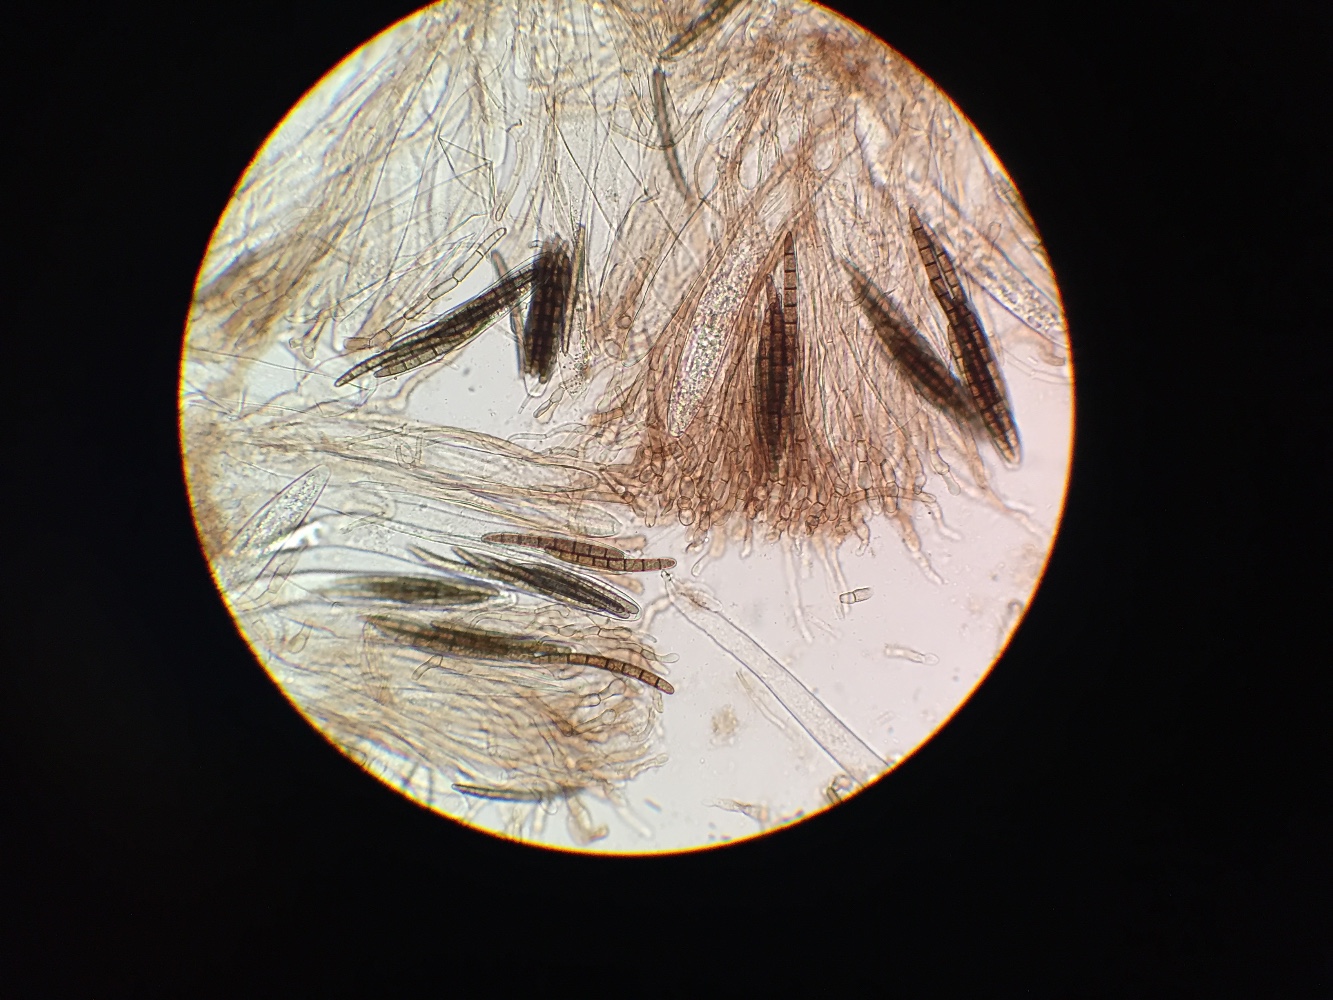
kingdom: Fungi
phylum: Ascomycota
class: Geoglossomycetes
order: Geoglossales
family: Geoglossaceae
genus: Geoglossum
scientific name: Geoglossum cookeianum
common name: bred jordtunge
